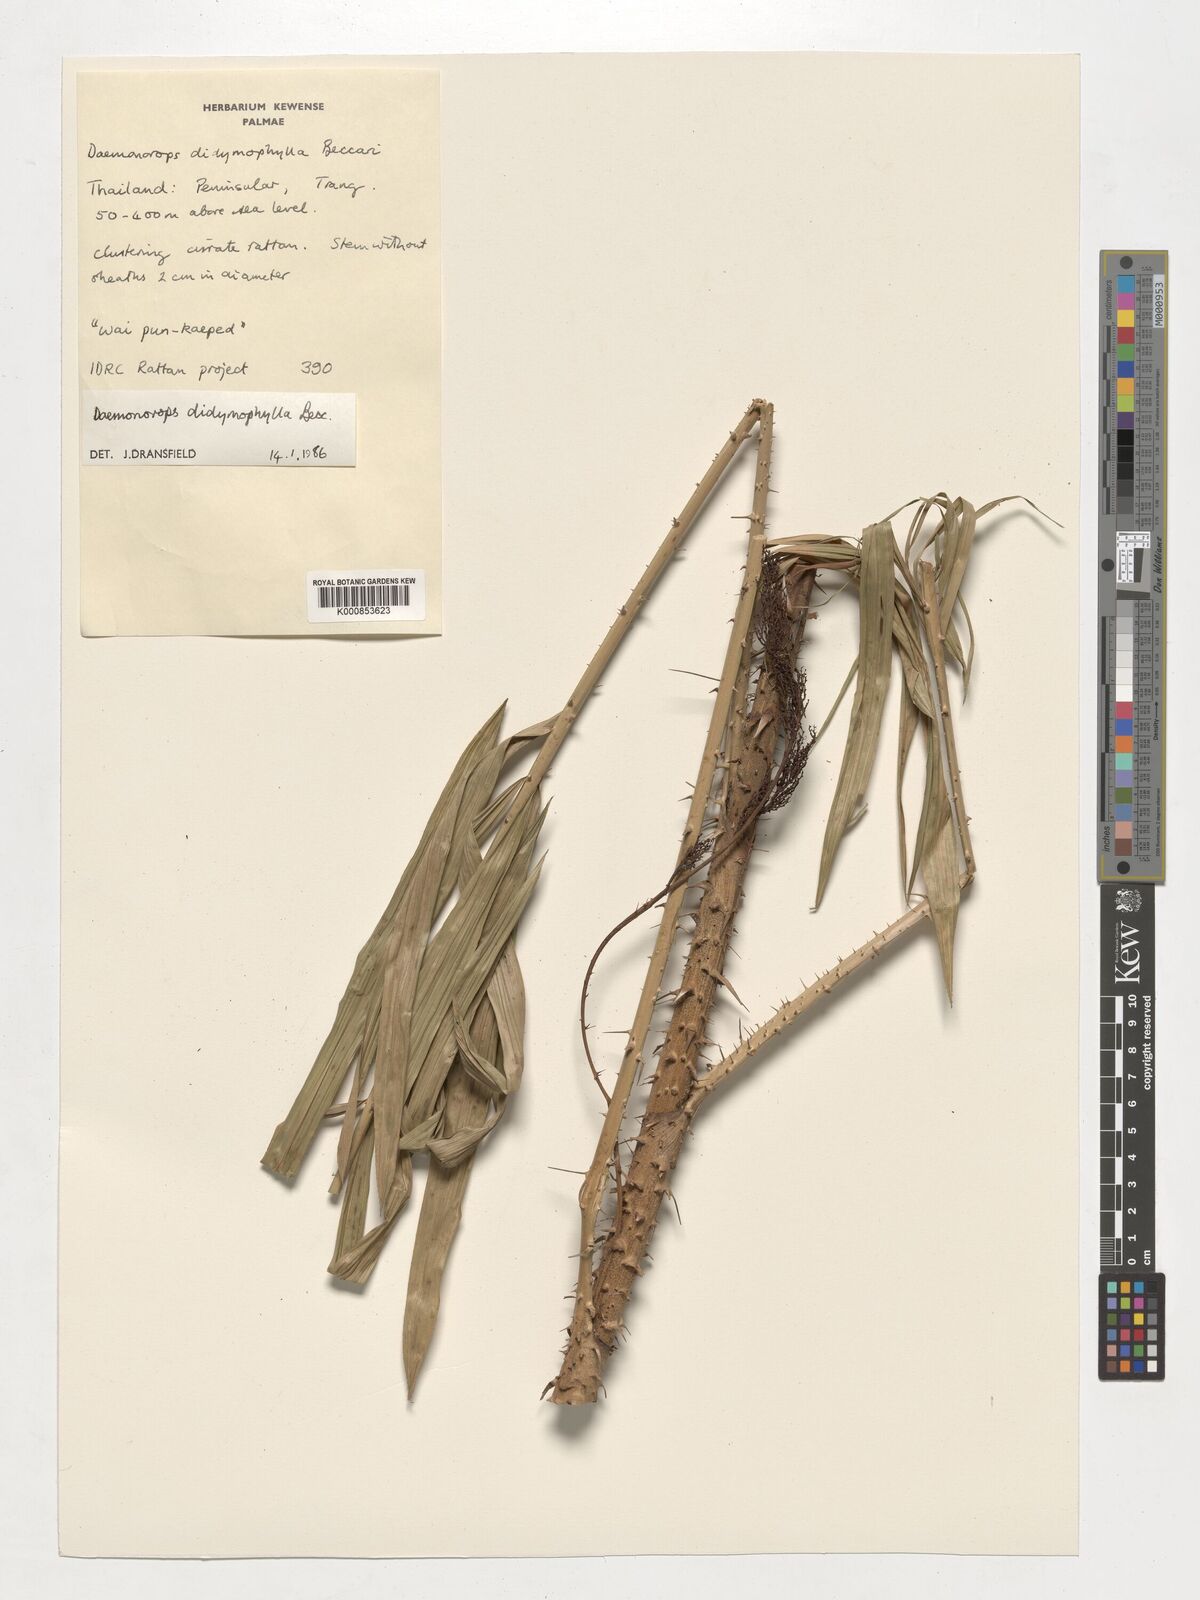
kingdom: Plantae
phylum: Tracheophyta
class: Liliopsida
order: Arecales
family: Arecaceae
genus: Calamus
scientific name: Calamus gracilipes
